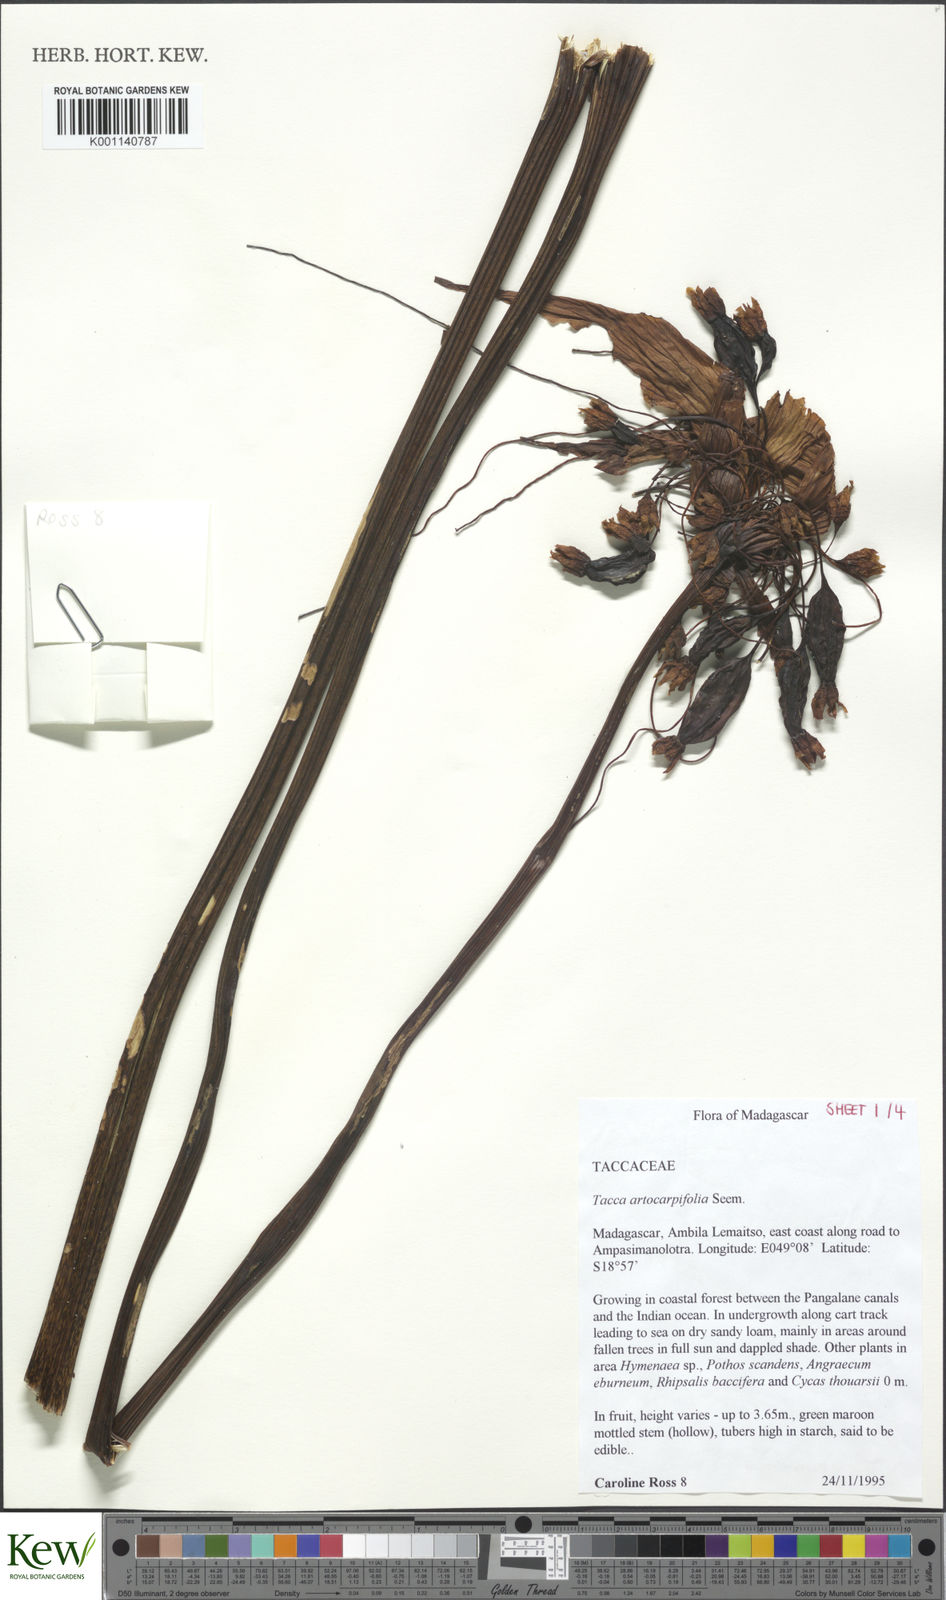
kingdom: Plantae
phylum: Tracheophyta
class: Liliopsida
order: Dioscoreales
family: Dioscoreaceae
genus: Tacca
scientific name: Tacca leontopetaloides
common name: Arrowroot
